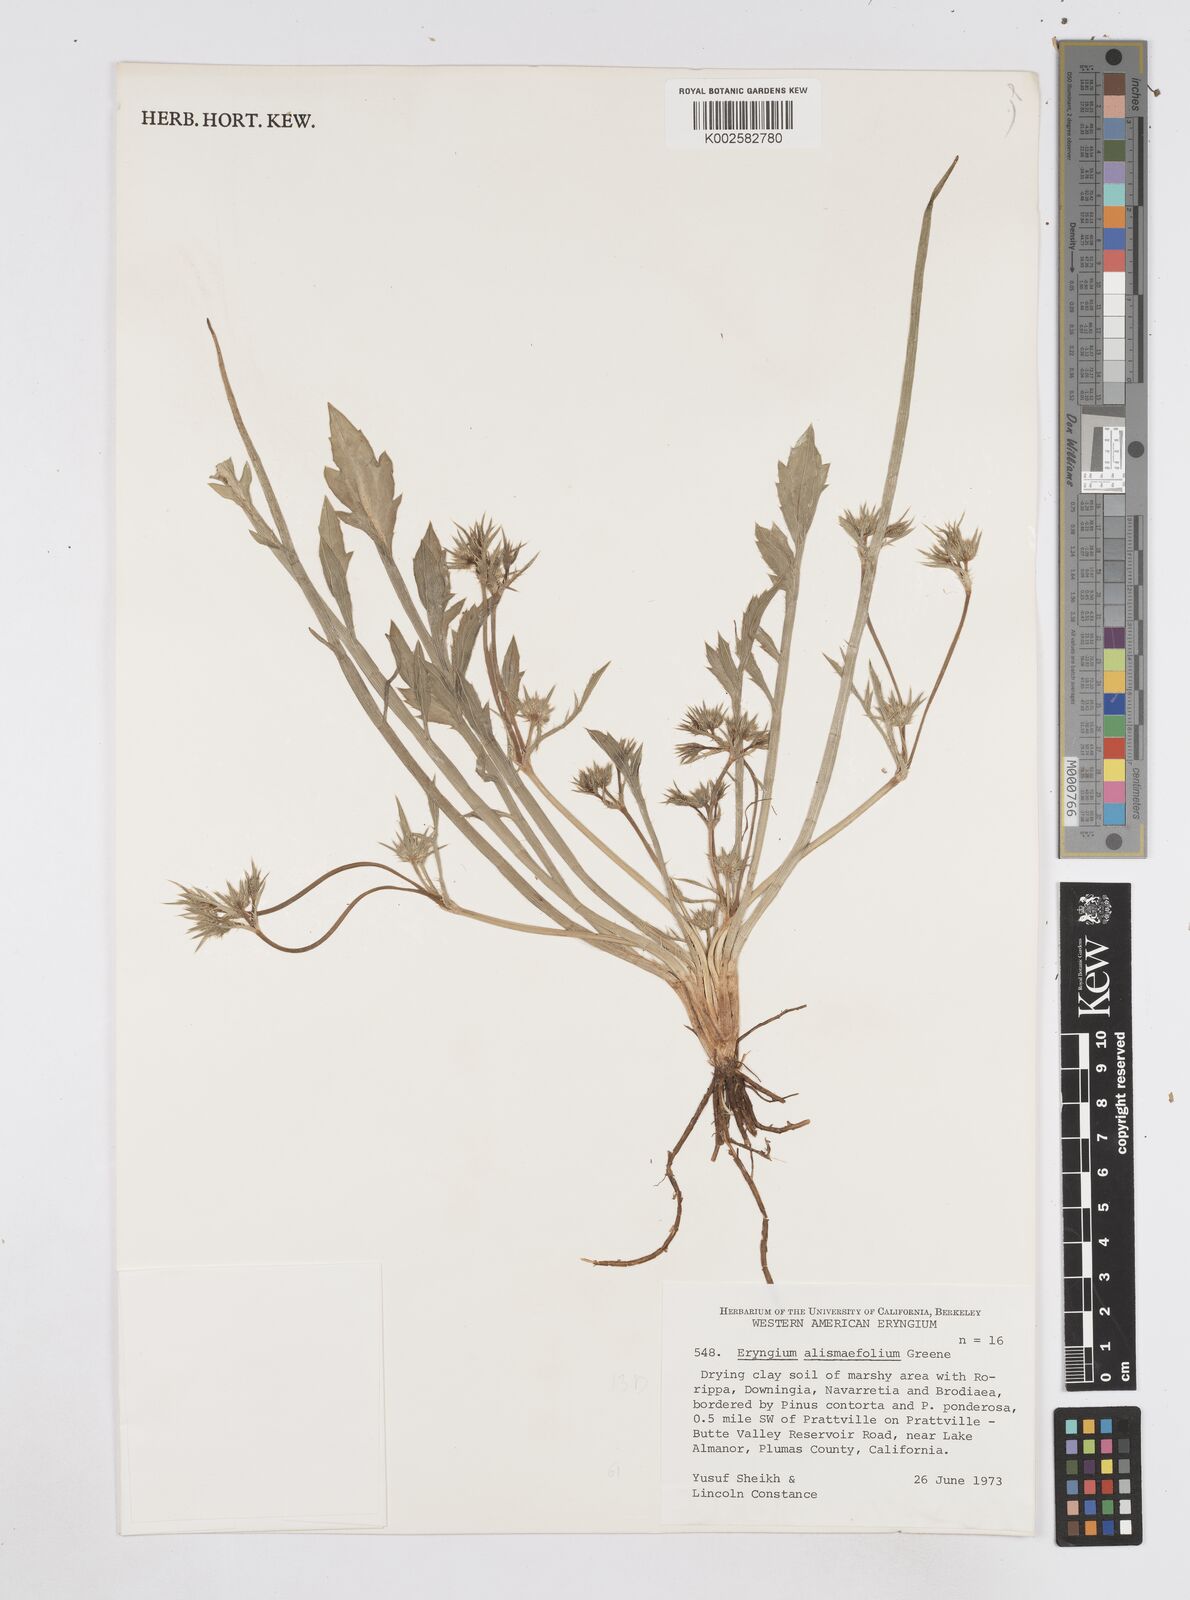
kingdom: Plantae
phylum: Tracheophyta
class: Magnoliopsida
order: Apiales
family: Apiaceae
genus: Eryngium
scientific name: Eryngium alismifolium
